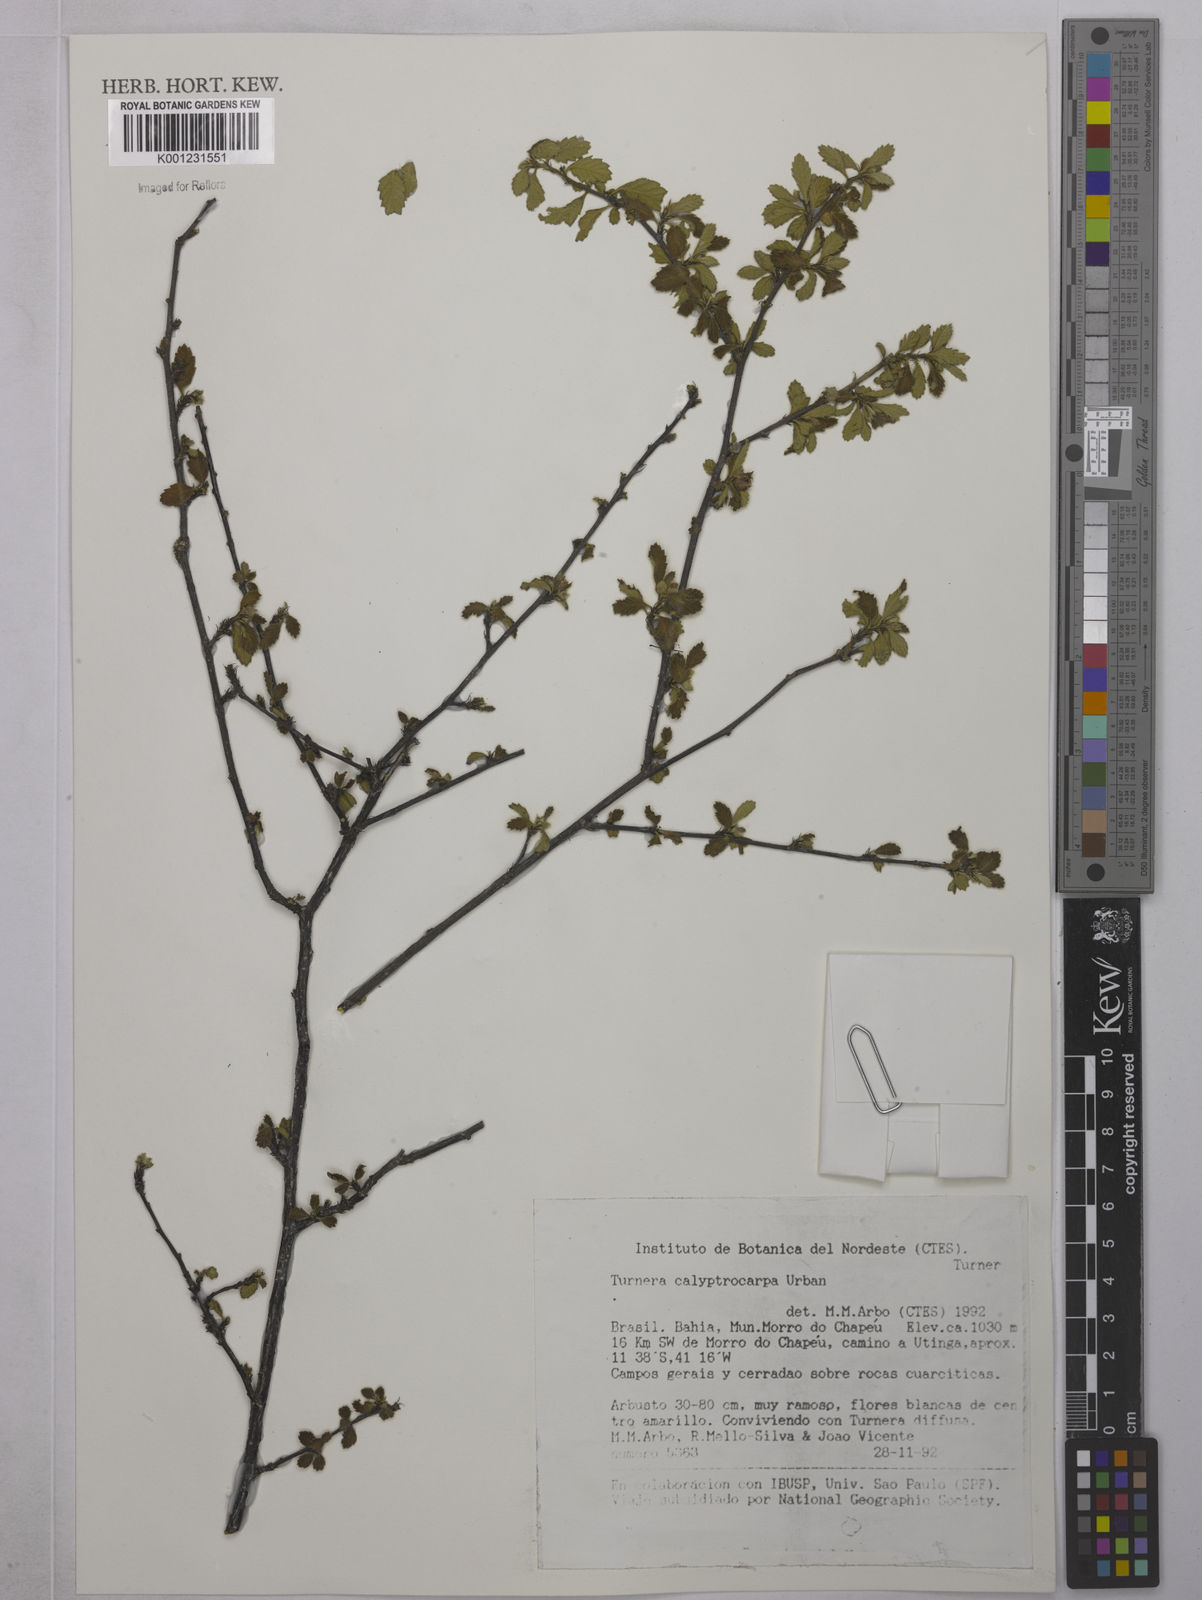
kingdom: Plantae
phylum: Tracheophyta
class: Magnoliopsida
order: Malpighiales
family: Turneraceae
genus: Oxossia
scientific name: Oxossia calyptrocarpa
